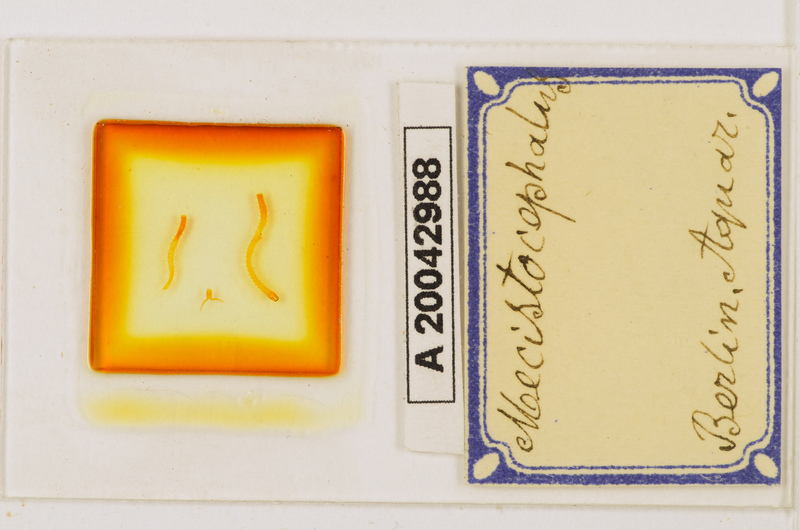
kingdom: Animalia
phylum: Arthropoda
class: Chilopoda
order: Geophilomorpha
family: Mecistocephalidae
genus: Mecistocephalus
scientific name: Mecistocephalus
